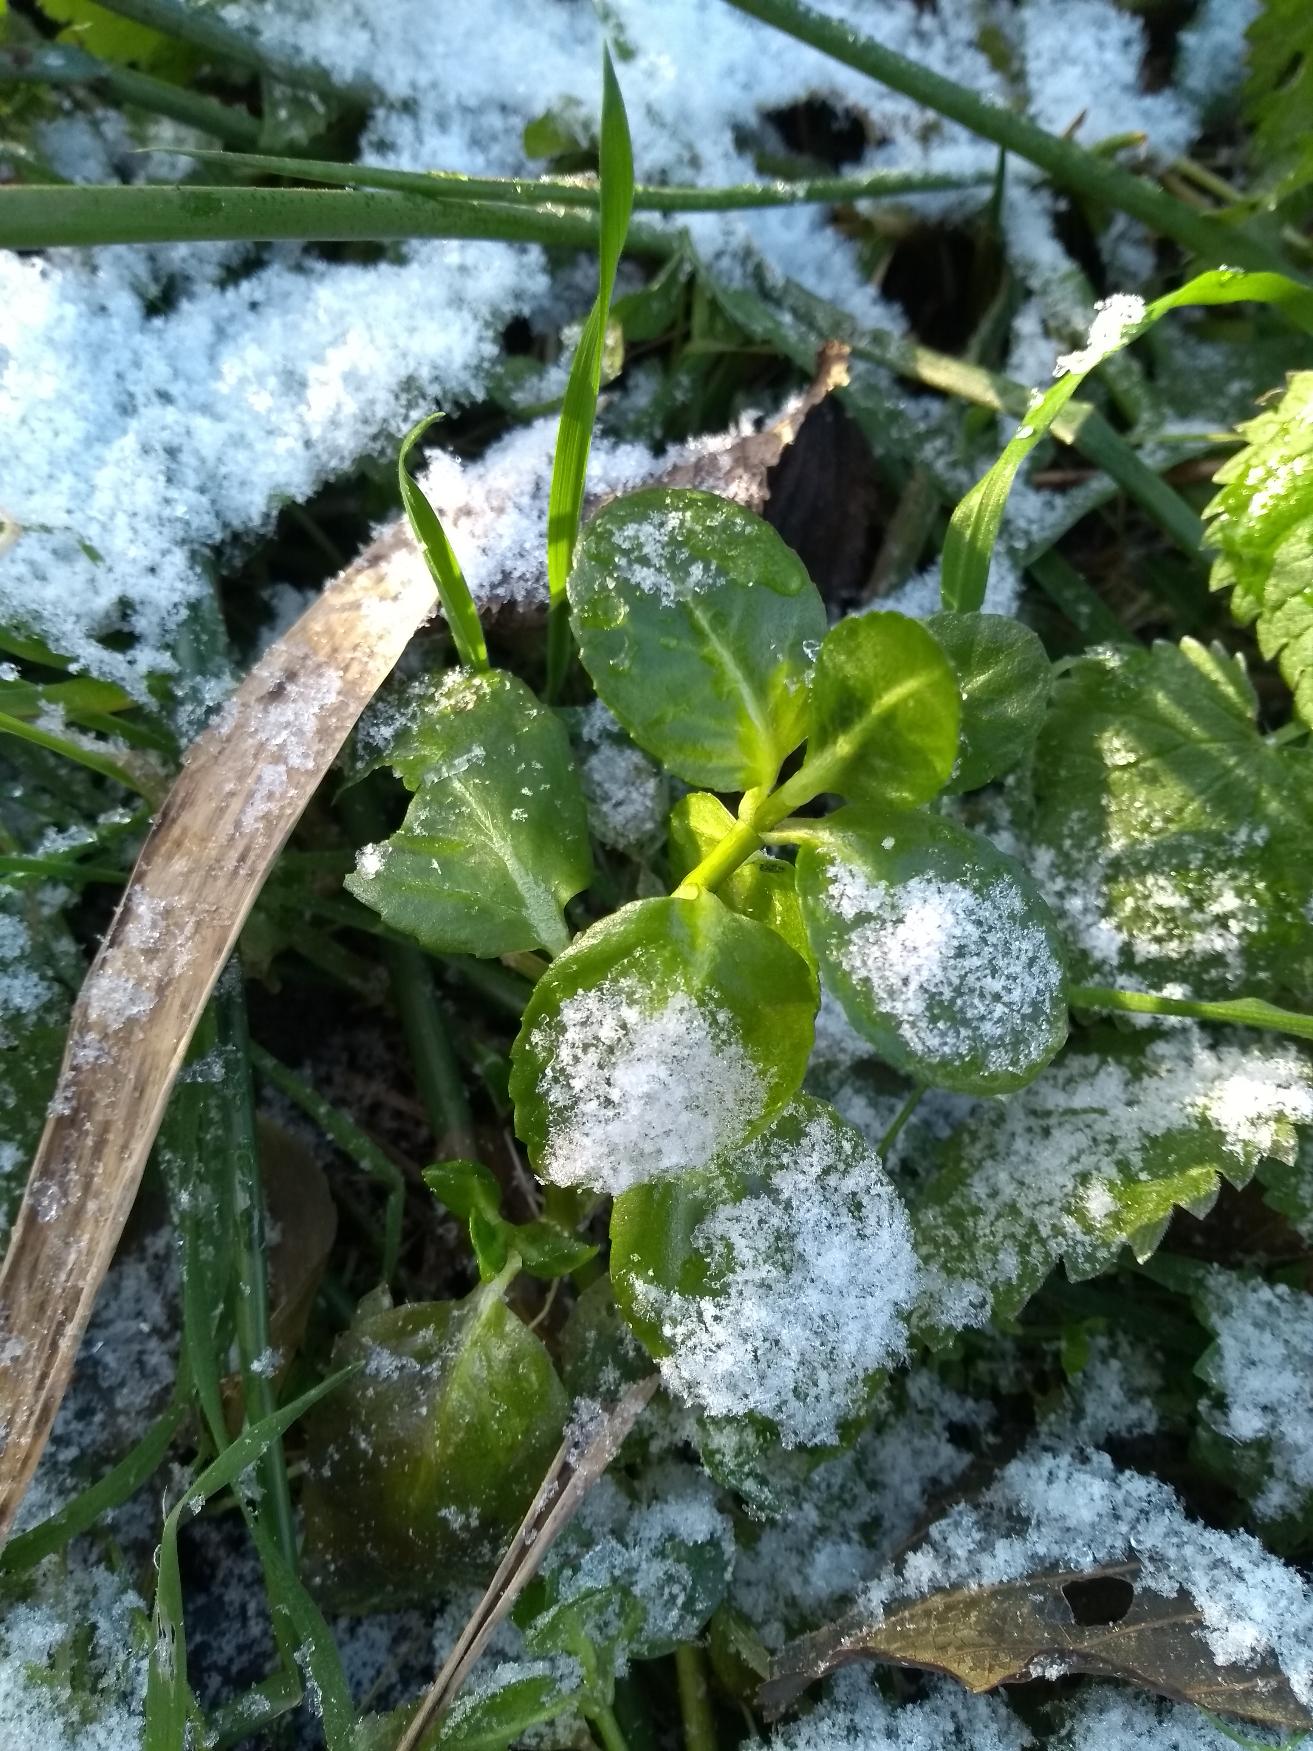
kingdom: Plantae
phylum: Tracheophyta
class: Magnoliopsida
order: Lamiales
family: Plantaginaceae
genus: Veronica
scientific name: Veronica beccabunga
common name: Tykbladet ærenpris
